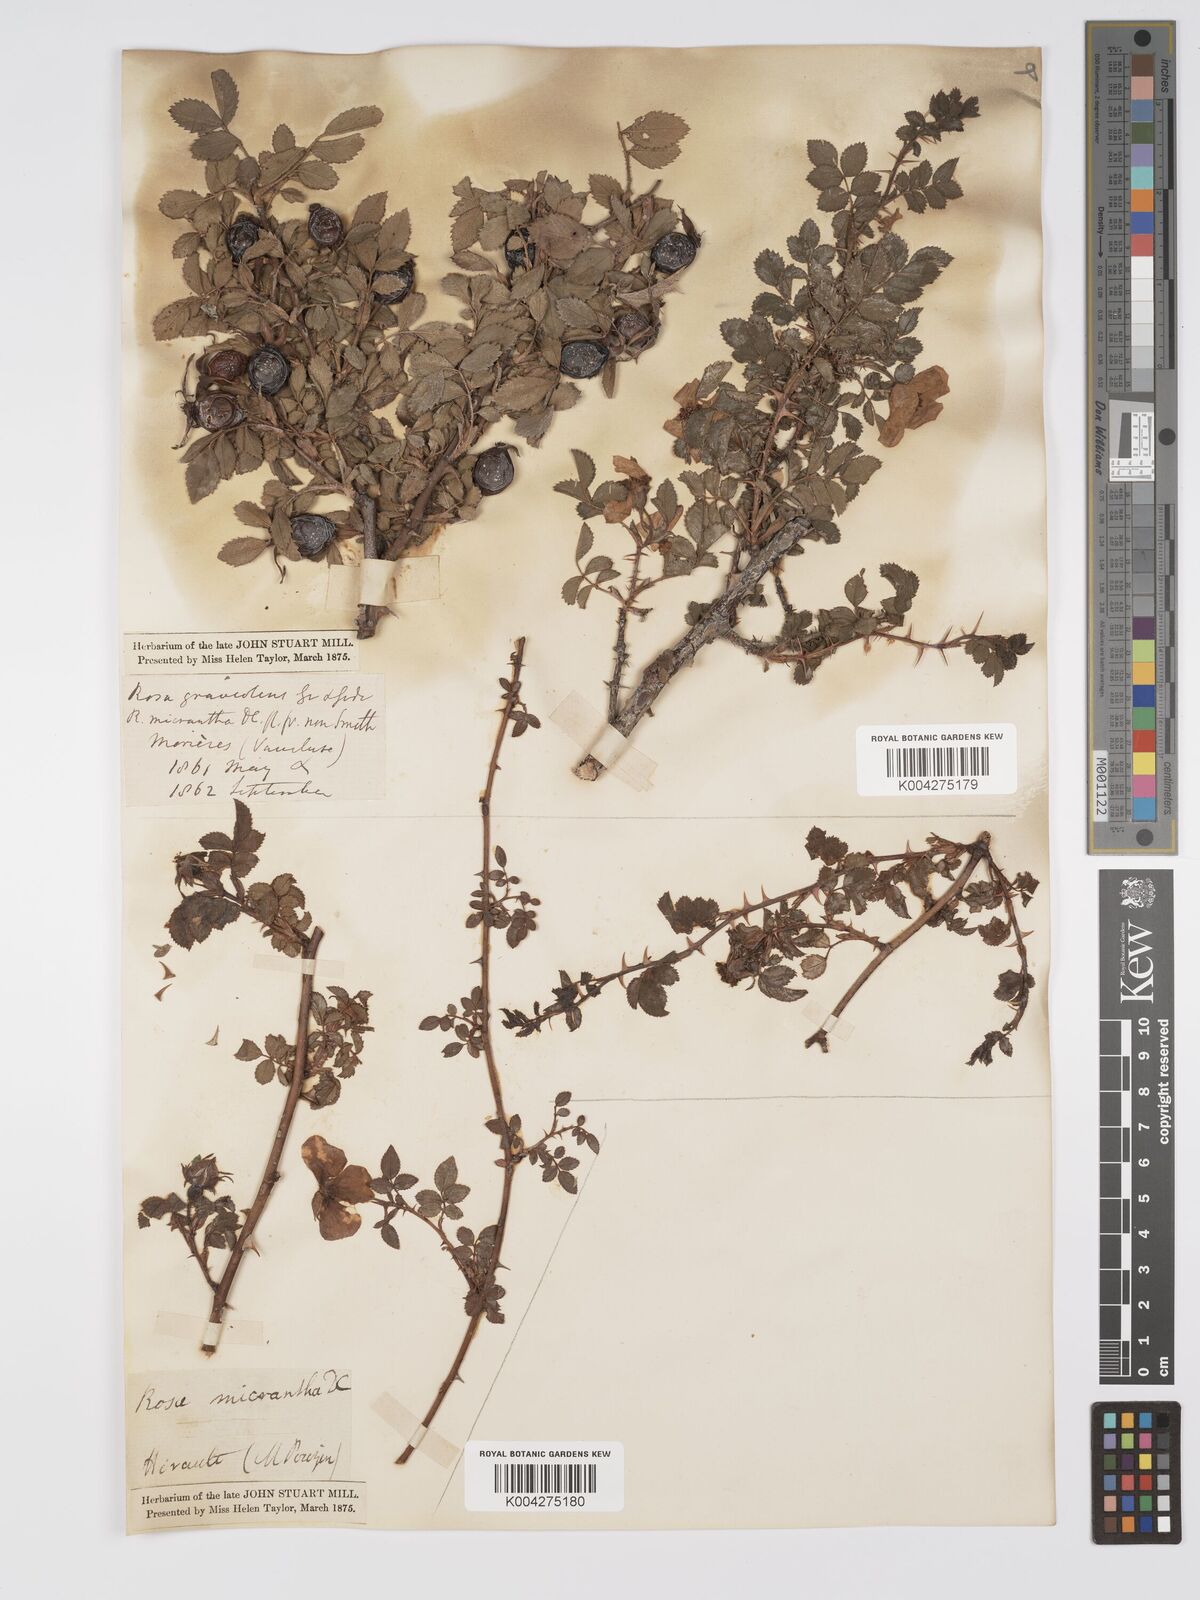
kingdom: Plantae
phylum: Tracheophyta
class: Magnoliopsida
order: Rosales
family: Rosaceae
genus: Rosa
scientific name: Rosa
